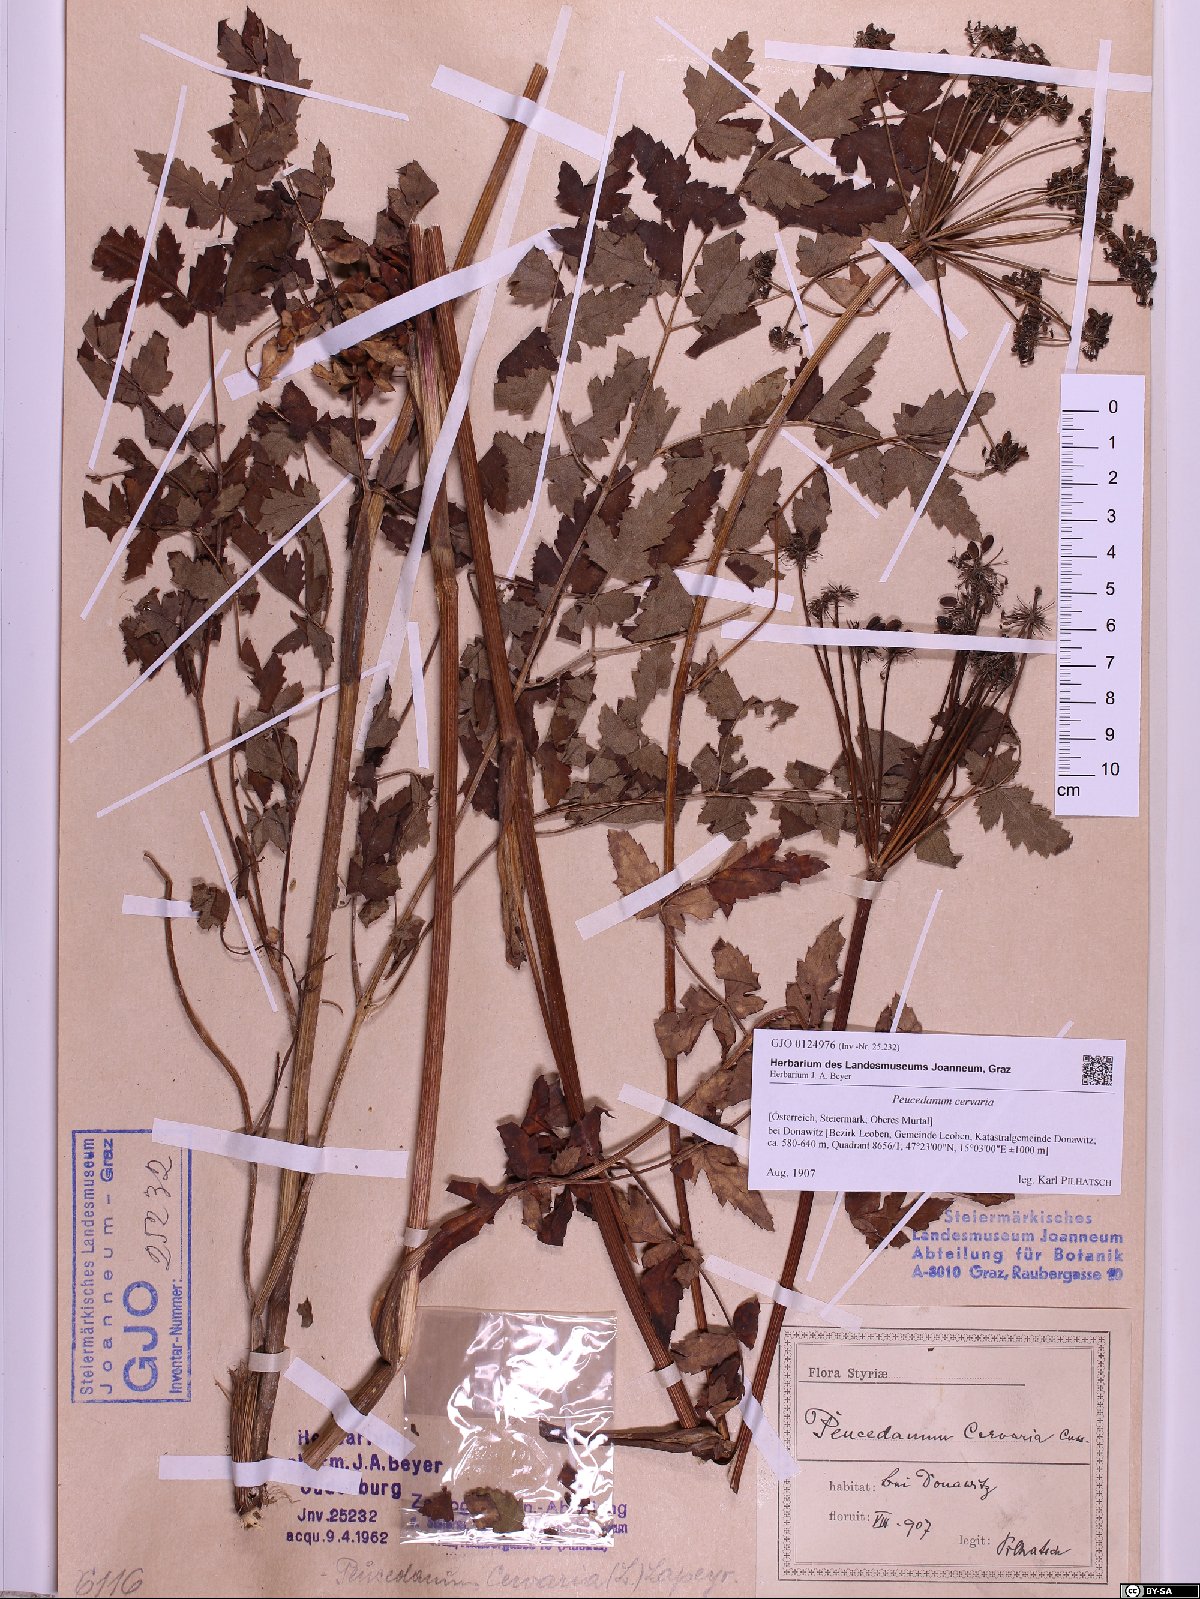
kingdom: Plantae
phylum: Tracheophyta
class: Magnoliopsida
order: Apiales
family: Apiaceae
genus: Cervaria
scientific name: Cervaria rivini
